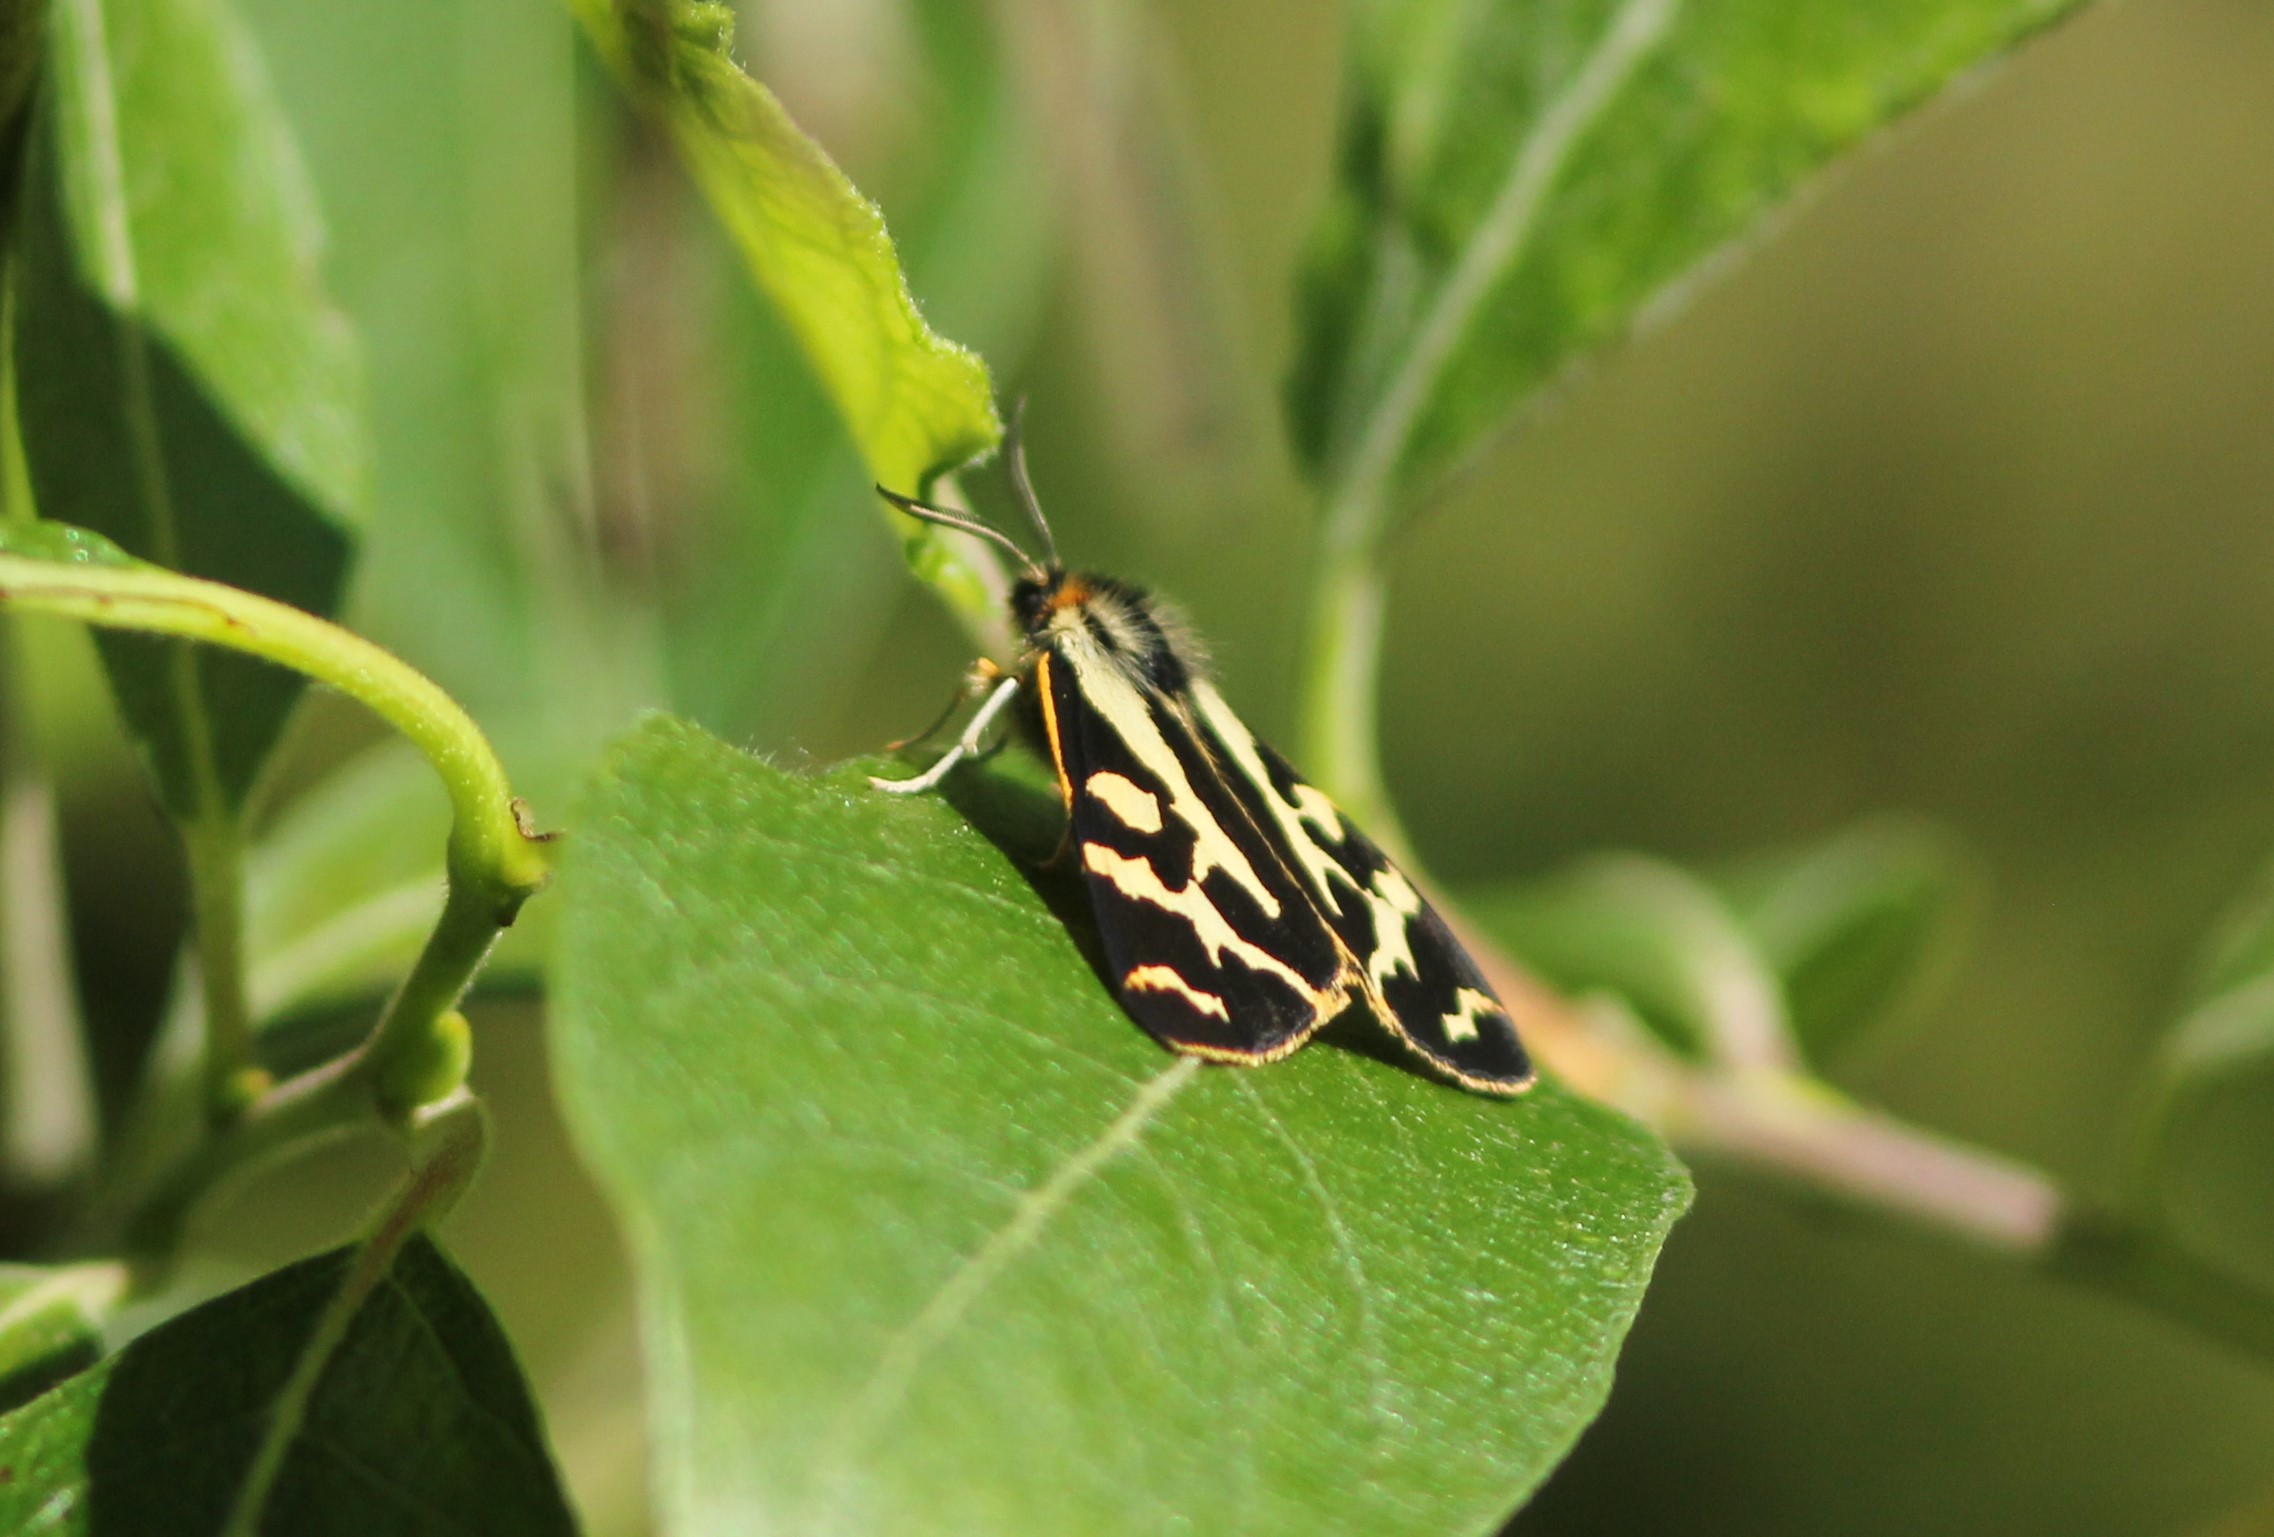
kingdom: Animalia
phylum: Arthropoda
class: Insecta
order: Lepidoptera
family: Erebidae
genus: Parasemia
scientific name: Parasemia plantaginis
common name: Wood tiger
